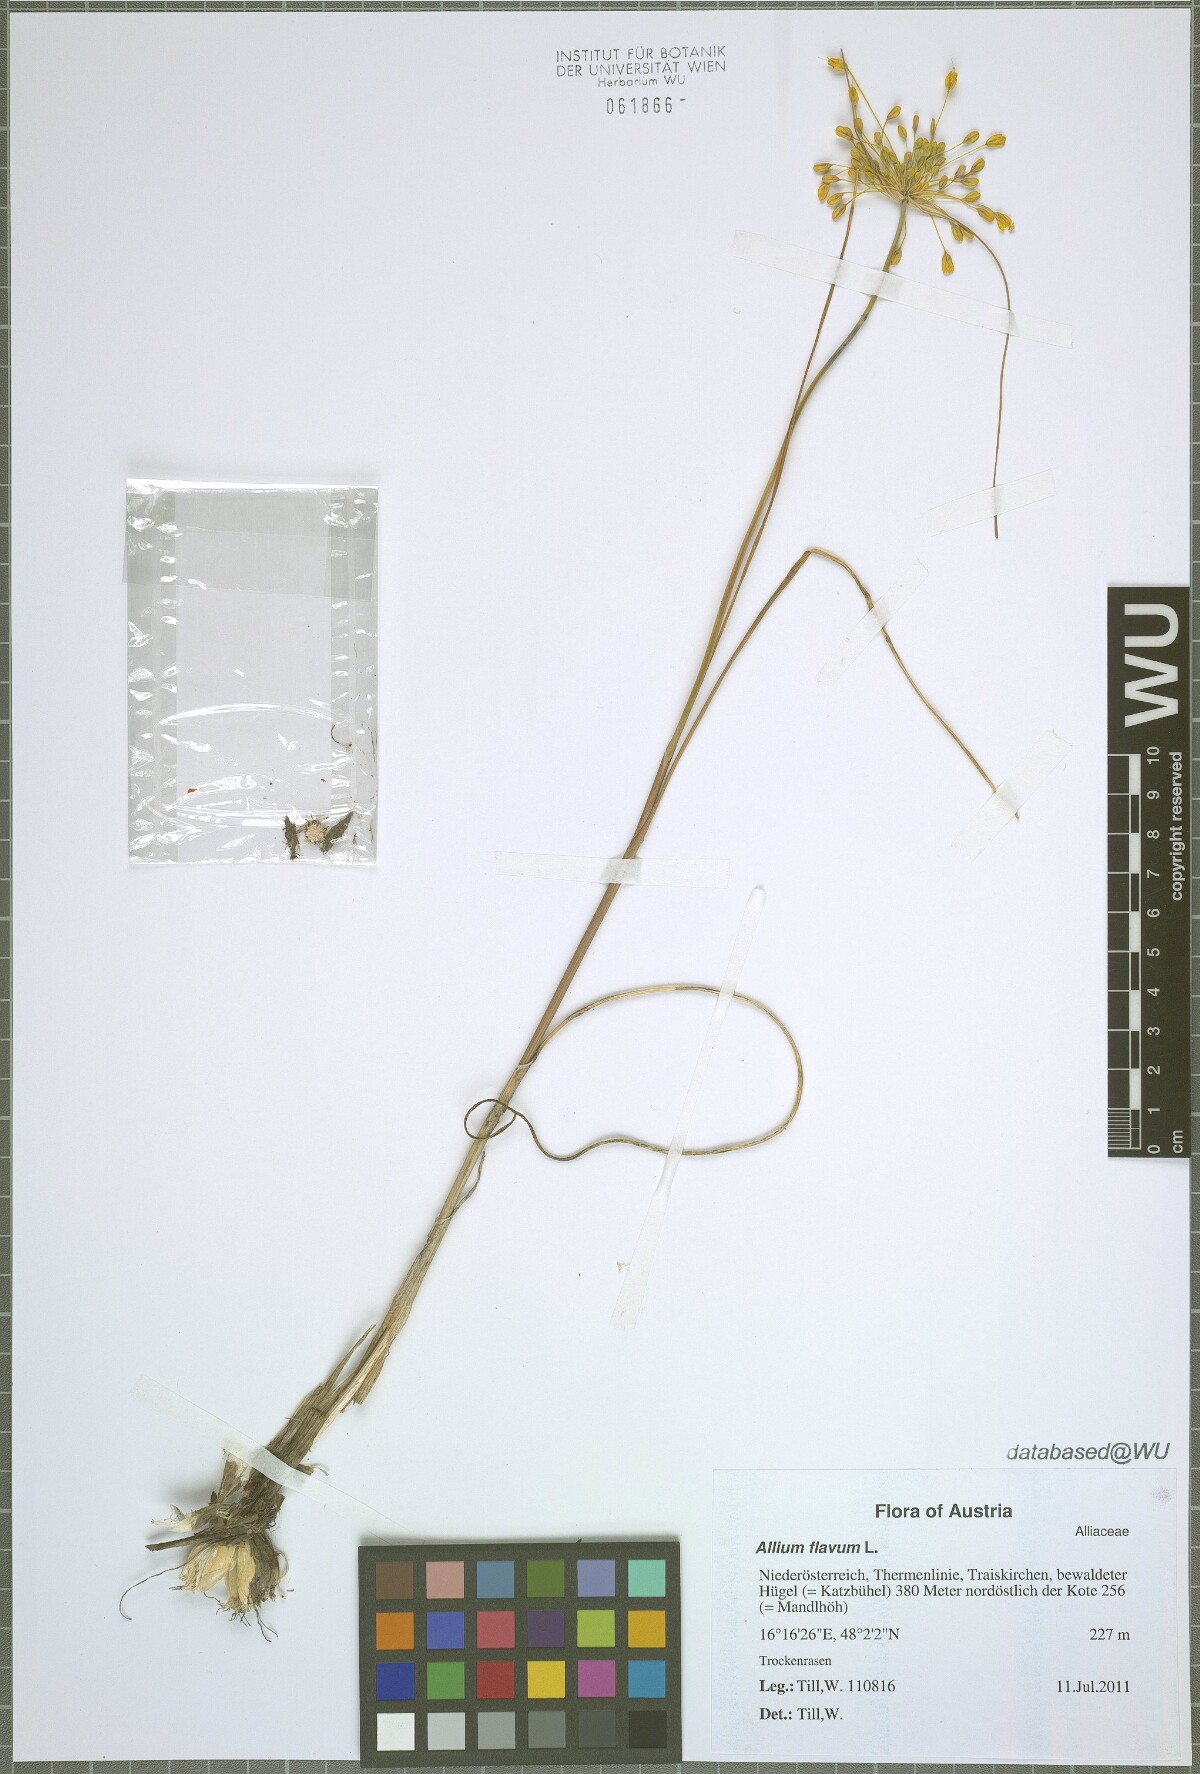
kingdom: Plantae
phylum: Tracheophyta
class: Liliopsida
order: Asparagales
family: Amaryllidaceae
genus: Allium
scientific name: Allium flavum
